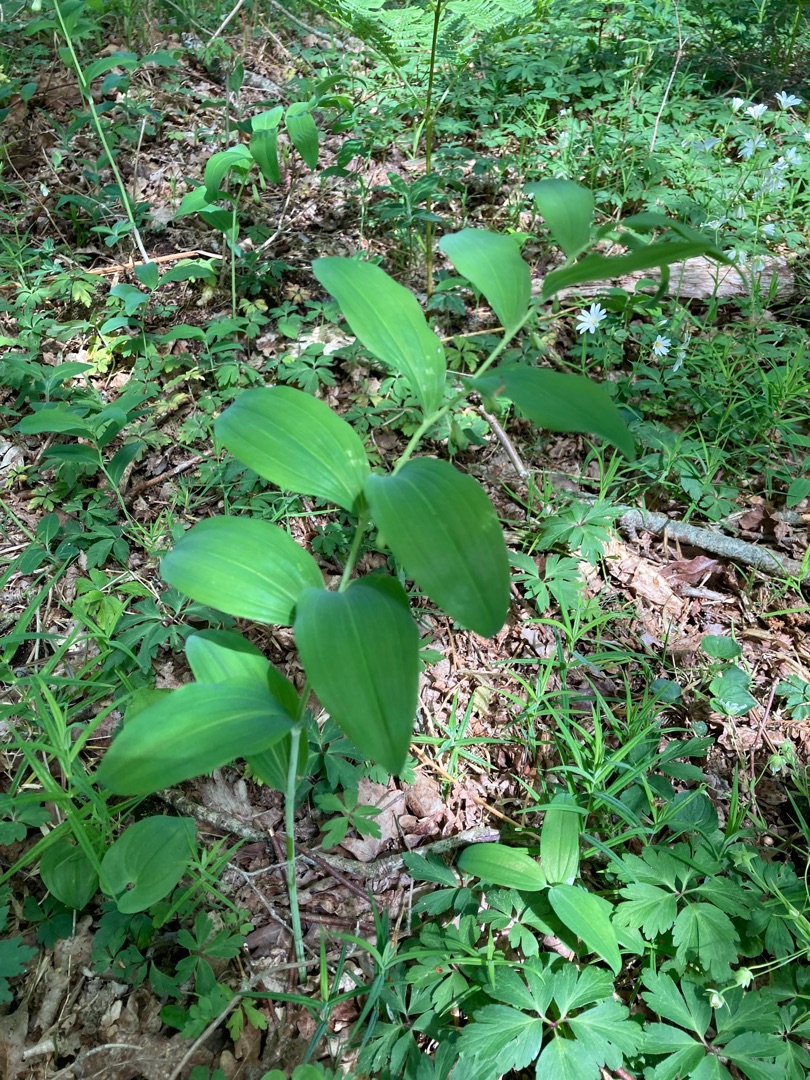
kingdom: Plantae
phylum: Tracheophyta
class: Liliopsida
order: Asparagales
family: Asparagaceae
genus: Polygonatum
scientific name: Polygonatum multiflorum
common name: Stor konval
